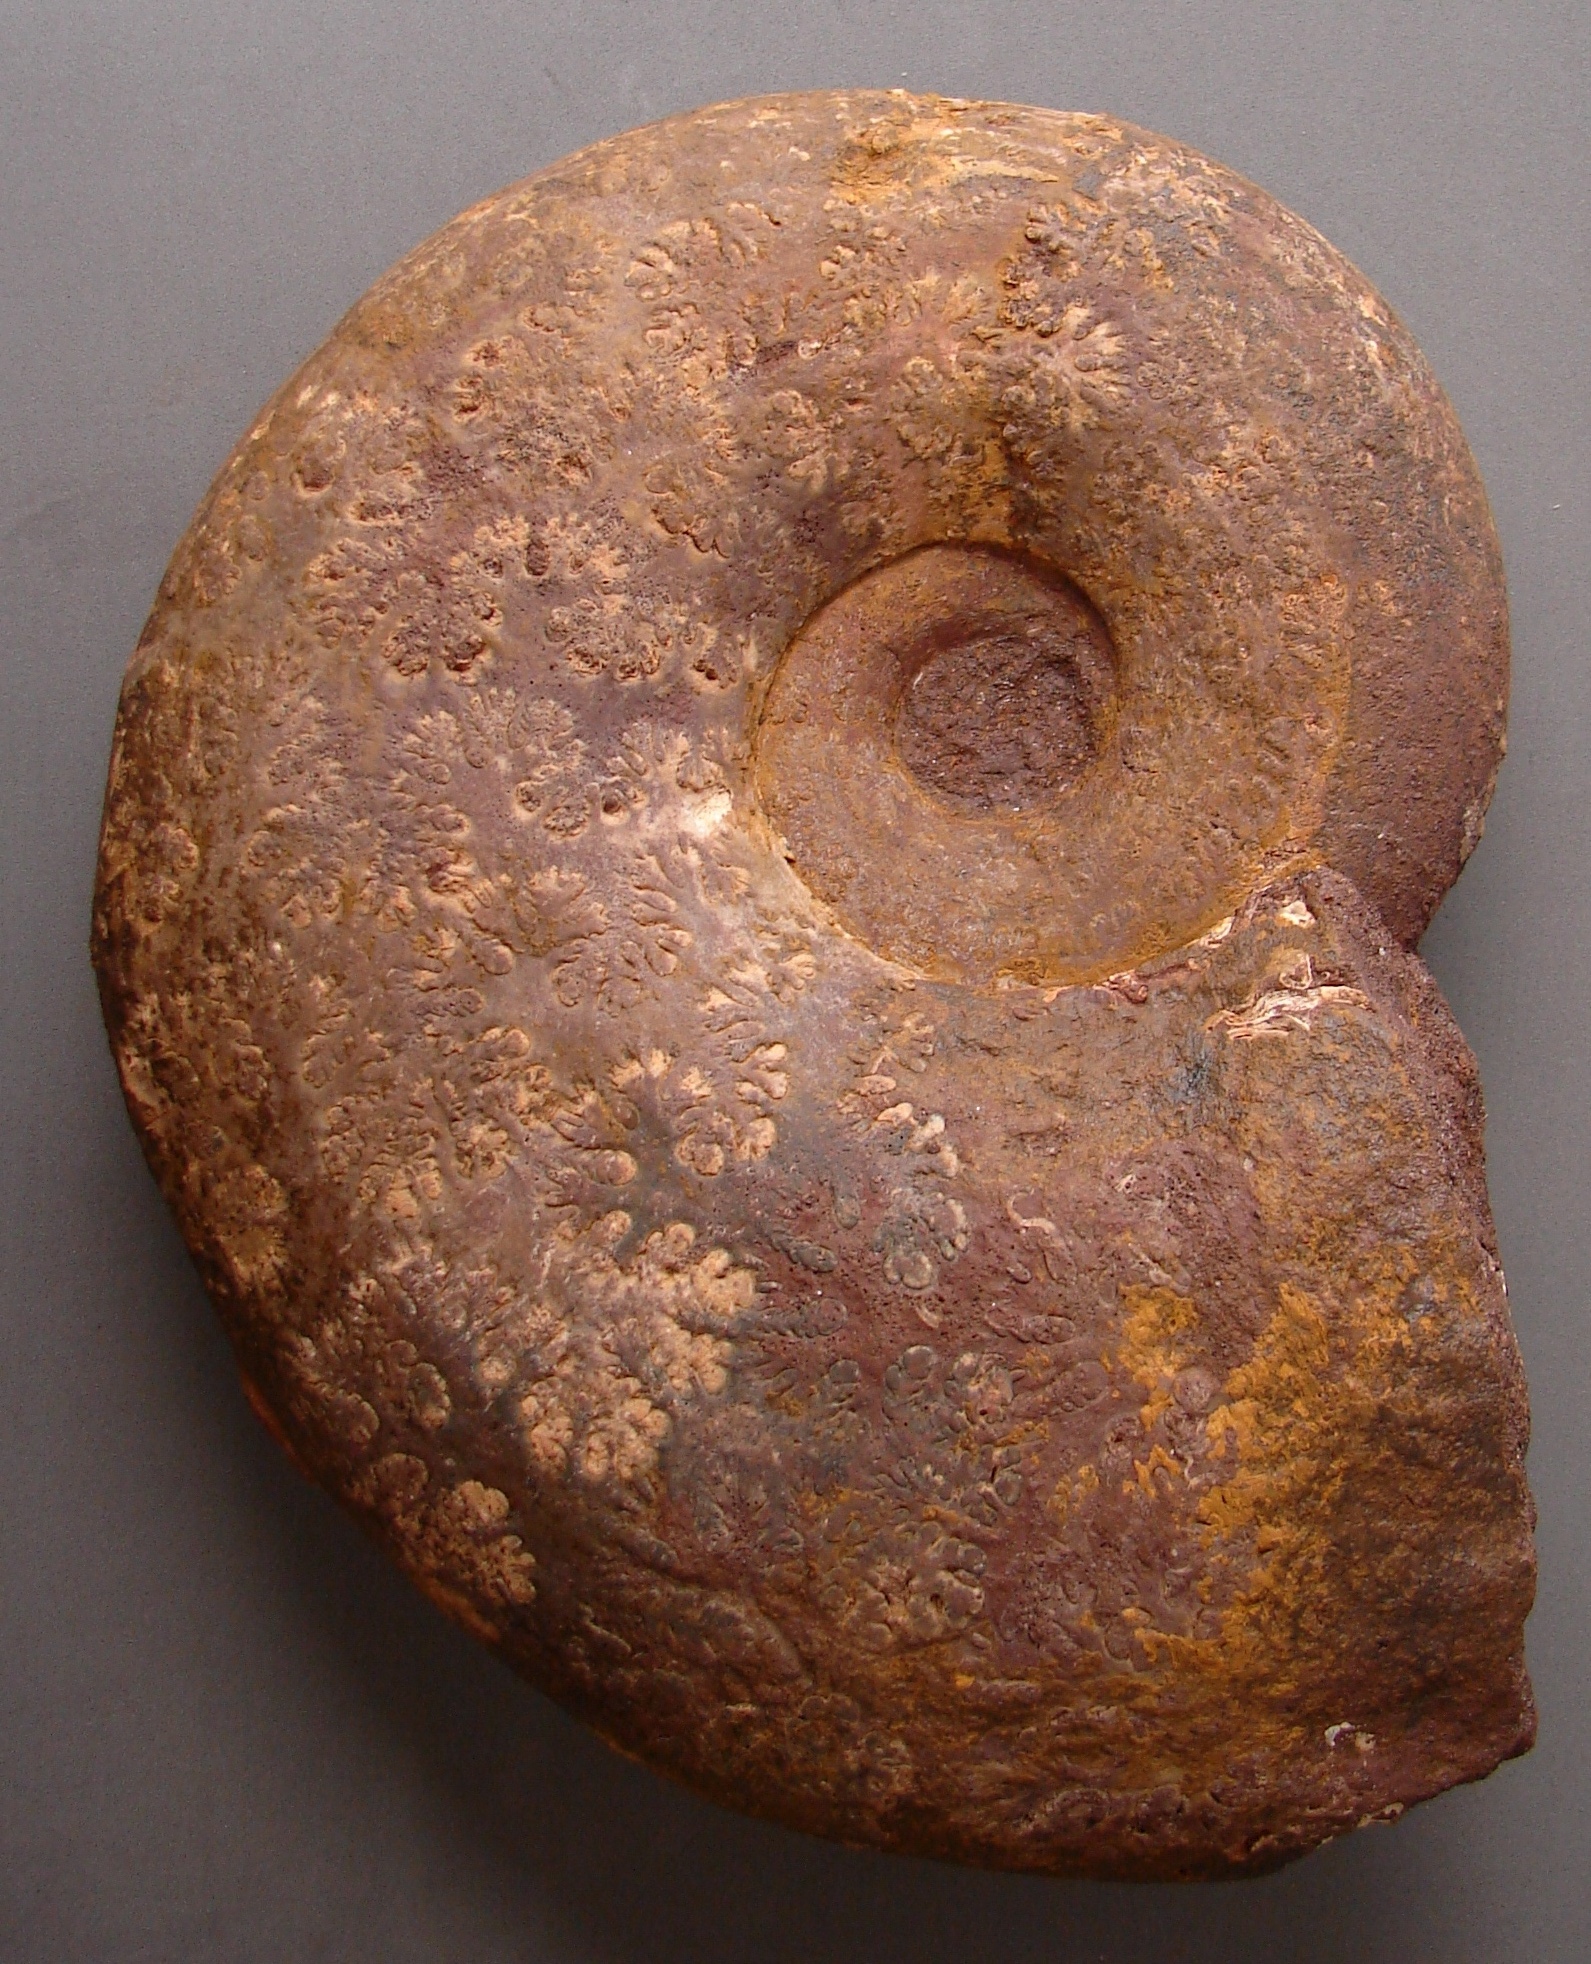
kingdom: Animalia
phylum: Mollusca
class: Cephalopoda
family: Lytoceratidae
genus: Pleurolytoceras
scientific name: Pleurolytoceras wrighti
